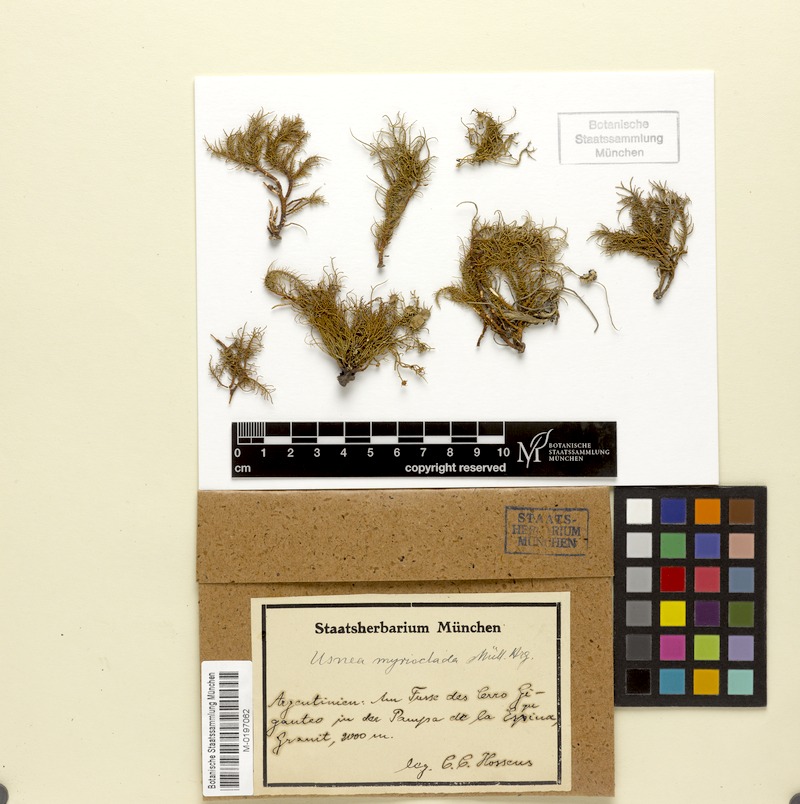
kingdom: Fungi
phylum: Ascomycota
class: Lecanoromycetes
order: Lecanorales
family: Ramalinaceae
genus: Ramalina
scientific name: Ramalina australiensis
